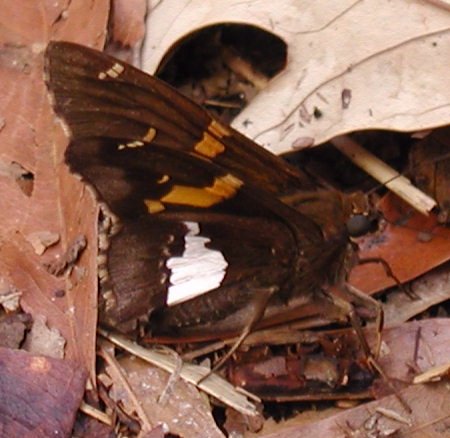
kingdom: Animalia
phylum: Arthropoda
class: Insecta
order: Lepidoptera
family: Hesperiidae
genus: Epargyreus
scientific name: Epargyreus clarus
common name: Silver-spotted Skipper
